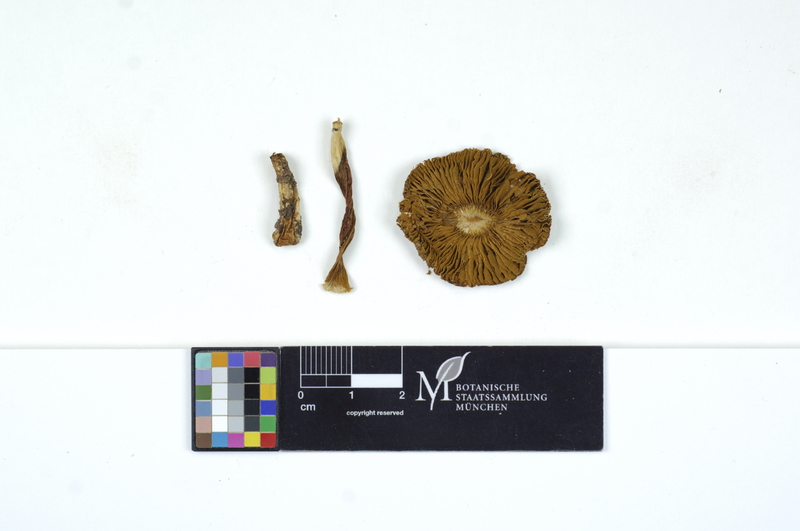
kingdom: Fungi
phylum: Basidiomycota
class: Agaricomycetes
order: Agaricales
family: Inocybaceae
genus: Pseudosperma
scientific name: Pseudosperma rimosum
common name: Split fibrecap
